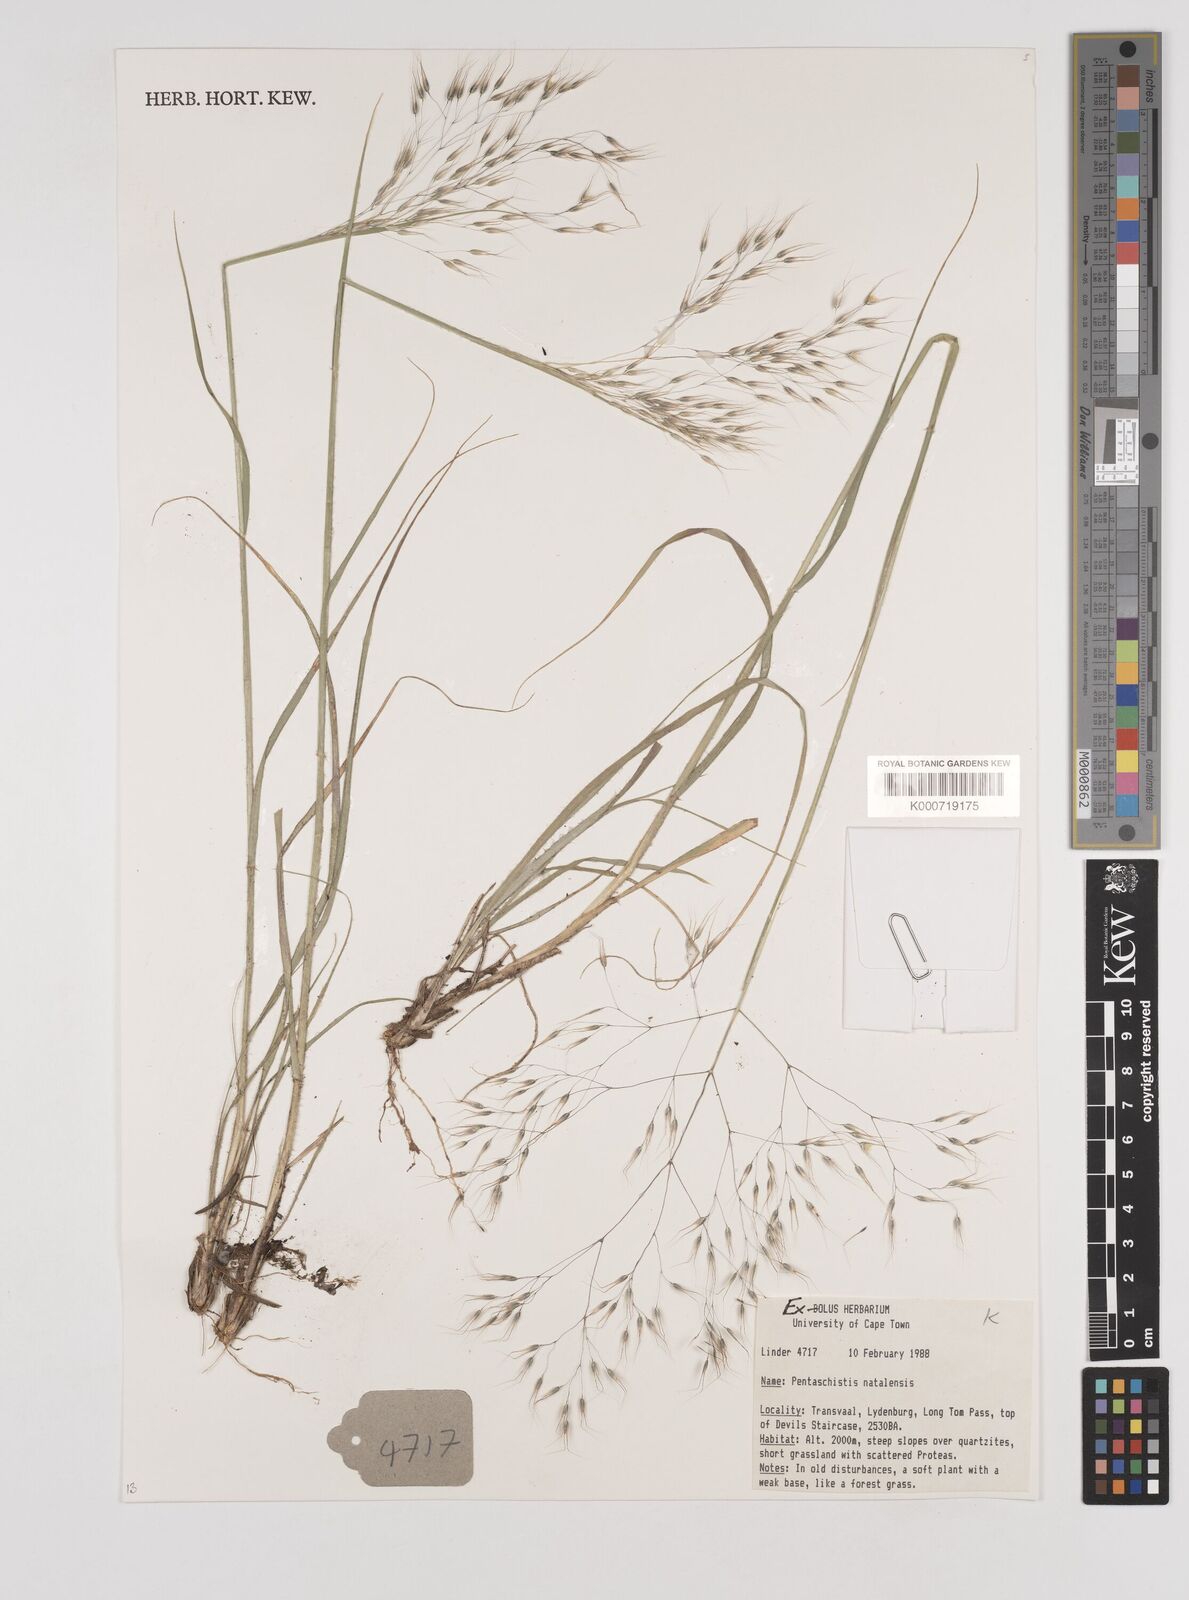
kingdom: Plantae
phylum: Tracheophyta
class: Liliopsida
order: Poales
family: Poaceae
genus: Pentameris
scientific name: Pentameris natalensis
